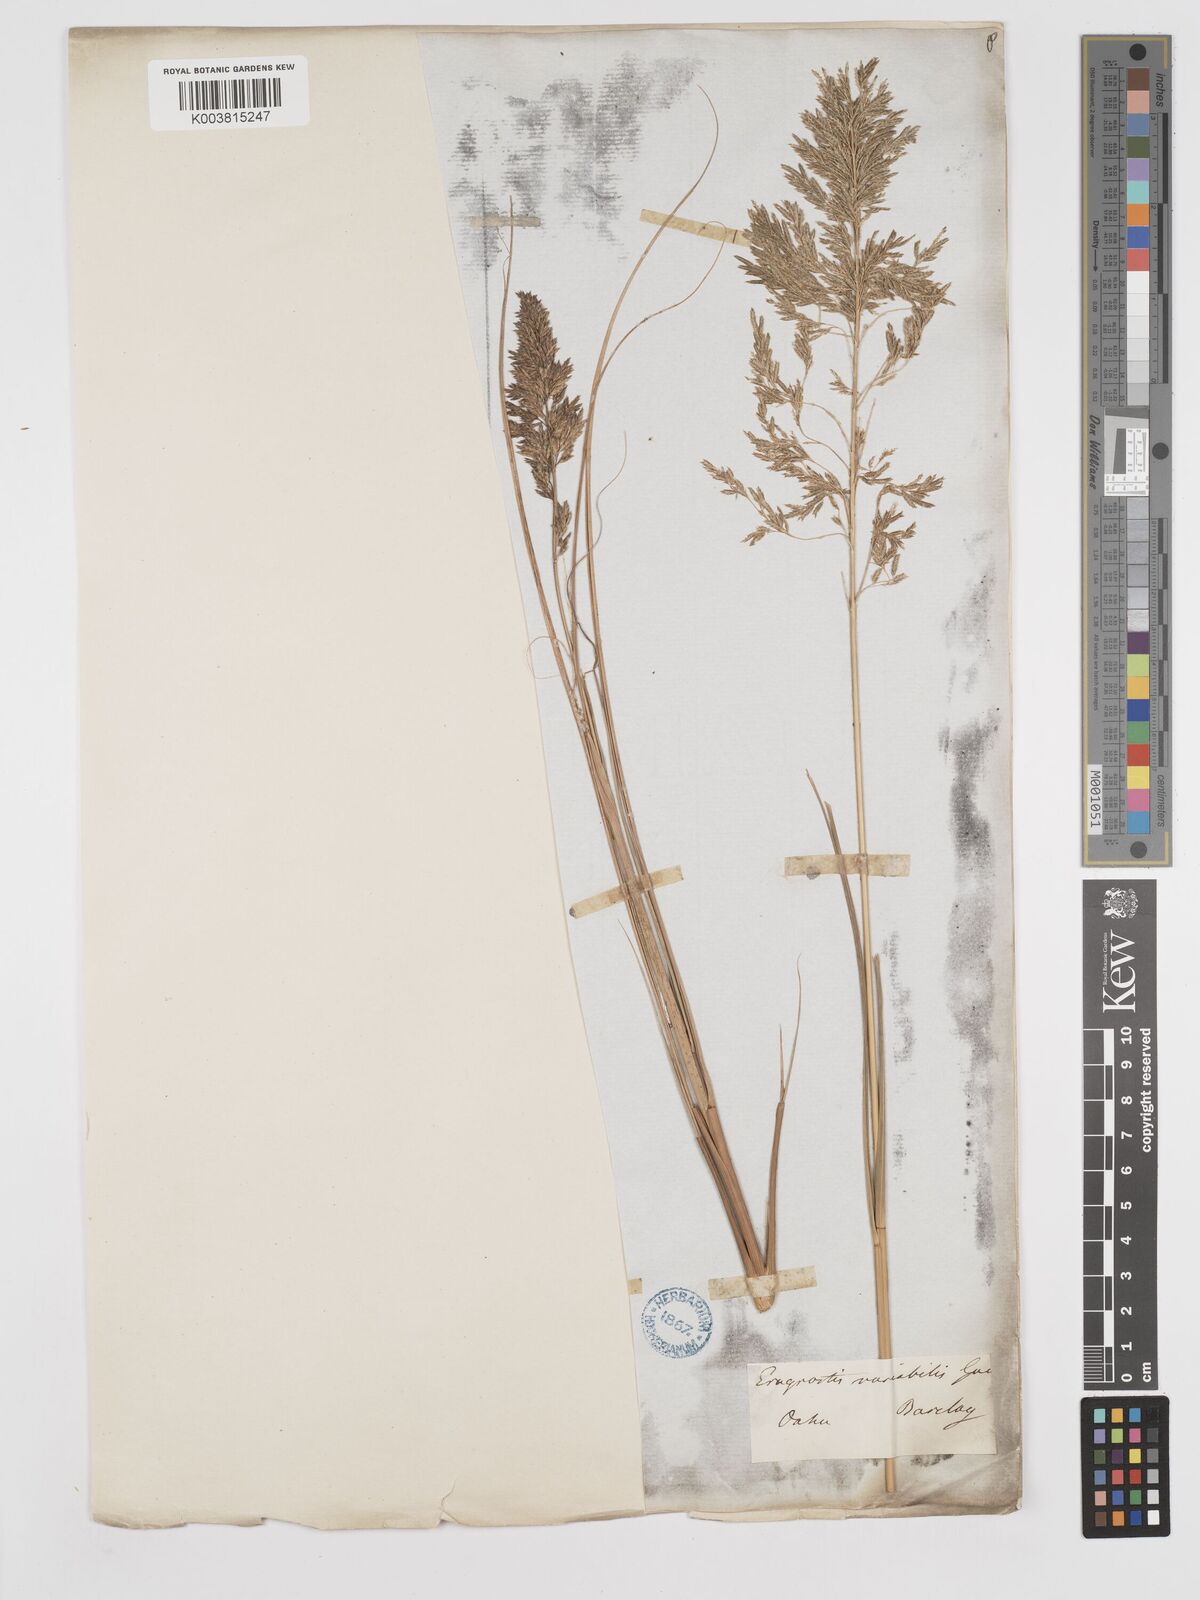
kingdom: Plantae
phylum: Tracheophyta
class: Liliopsida
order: Poales
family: Poaceae
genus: Eragrostis
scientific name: Eragrostis variabilis
